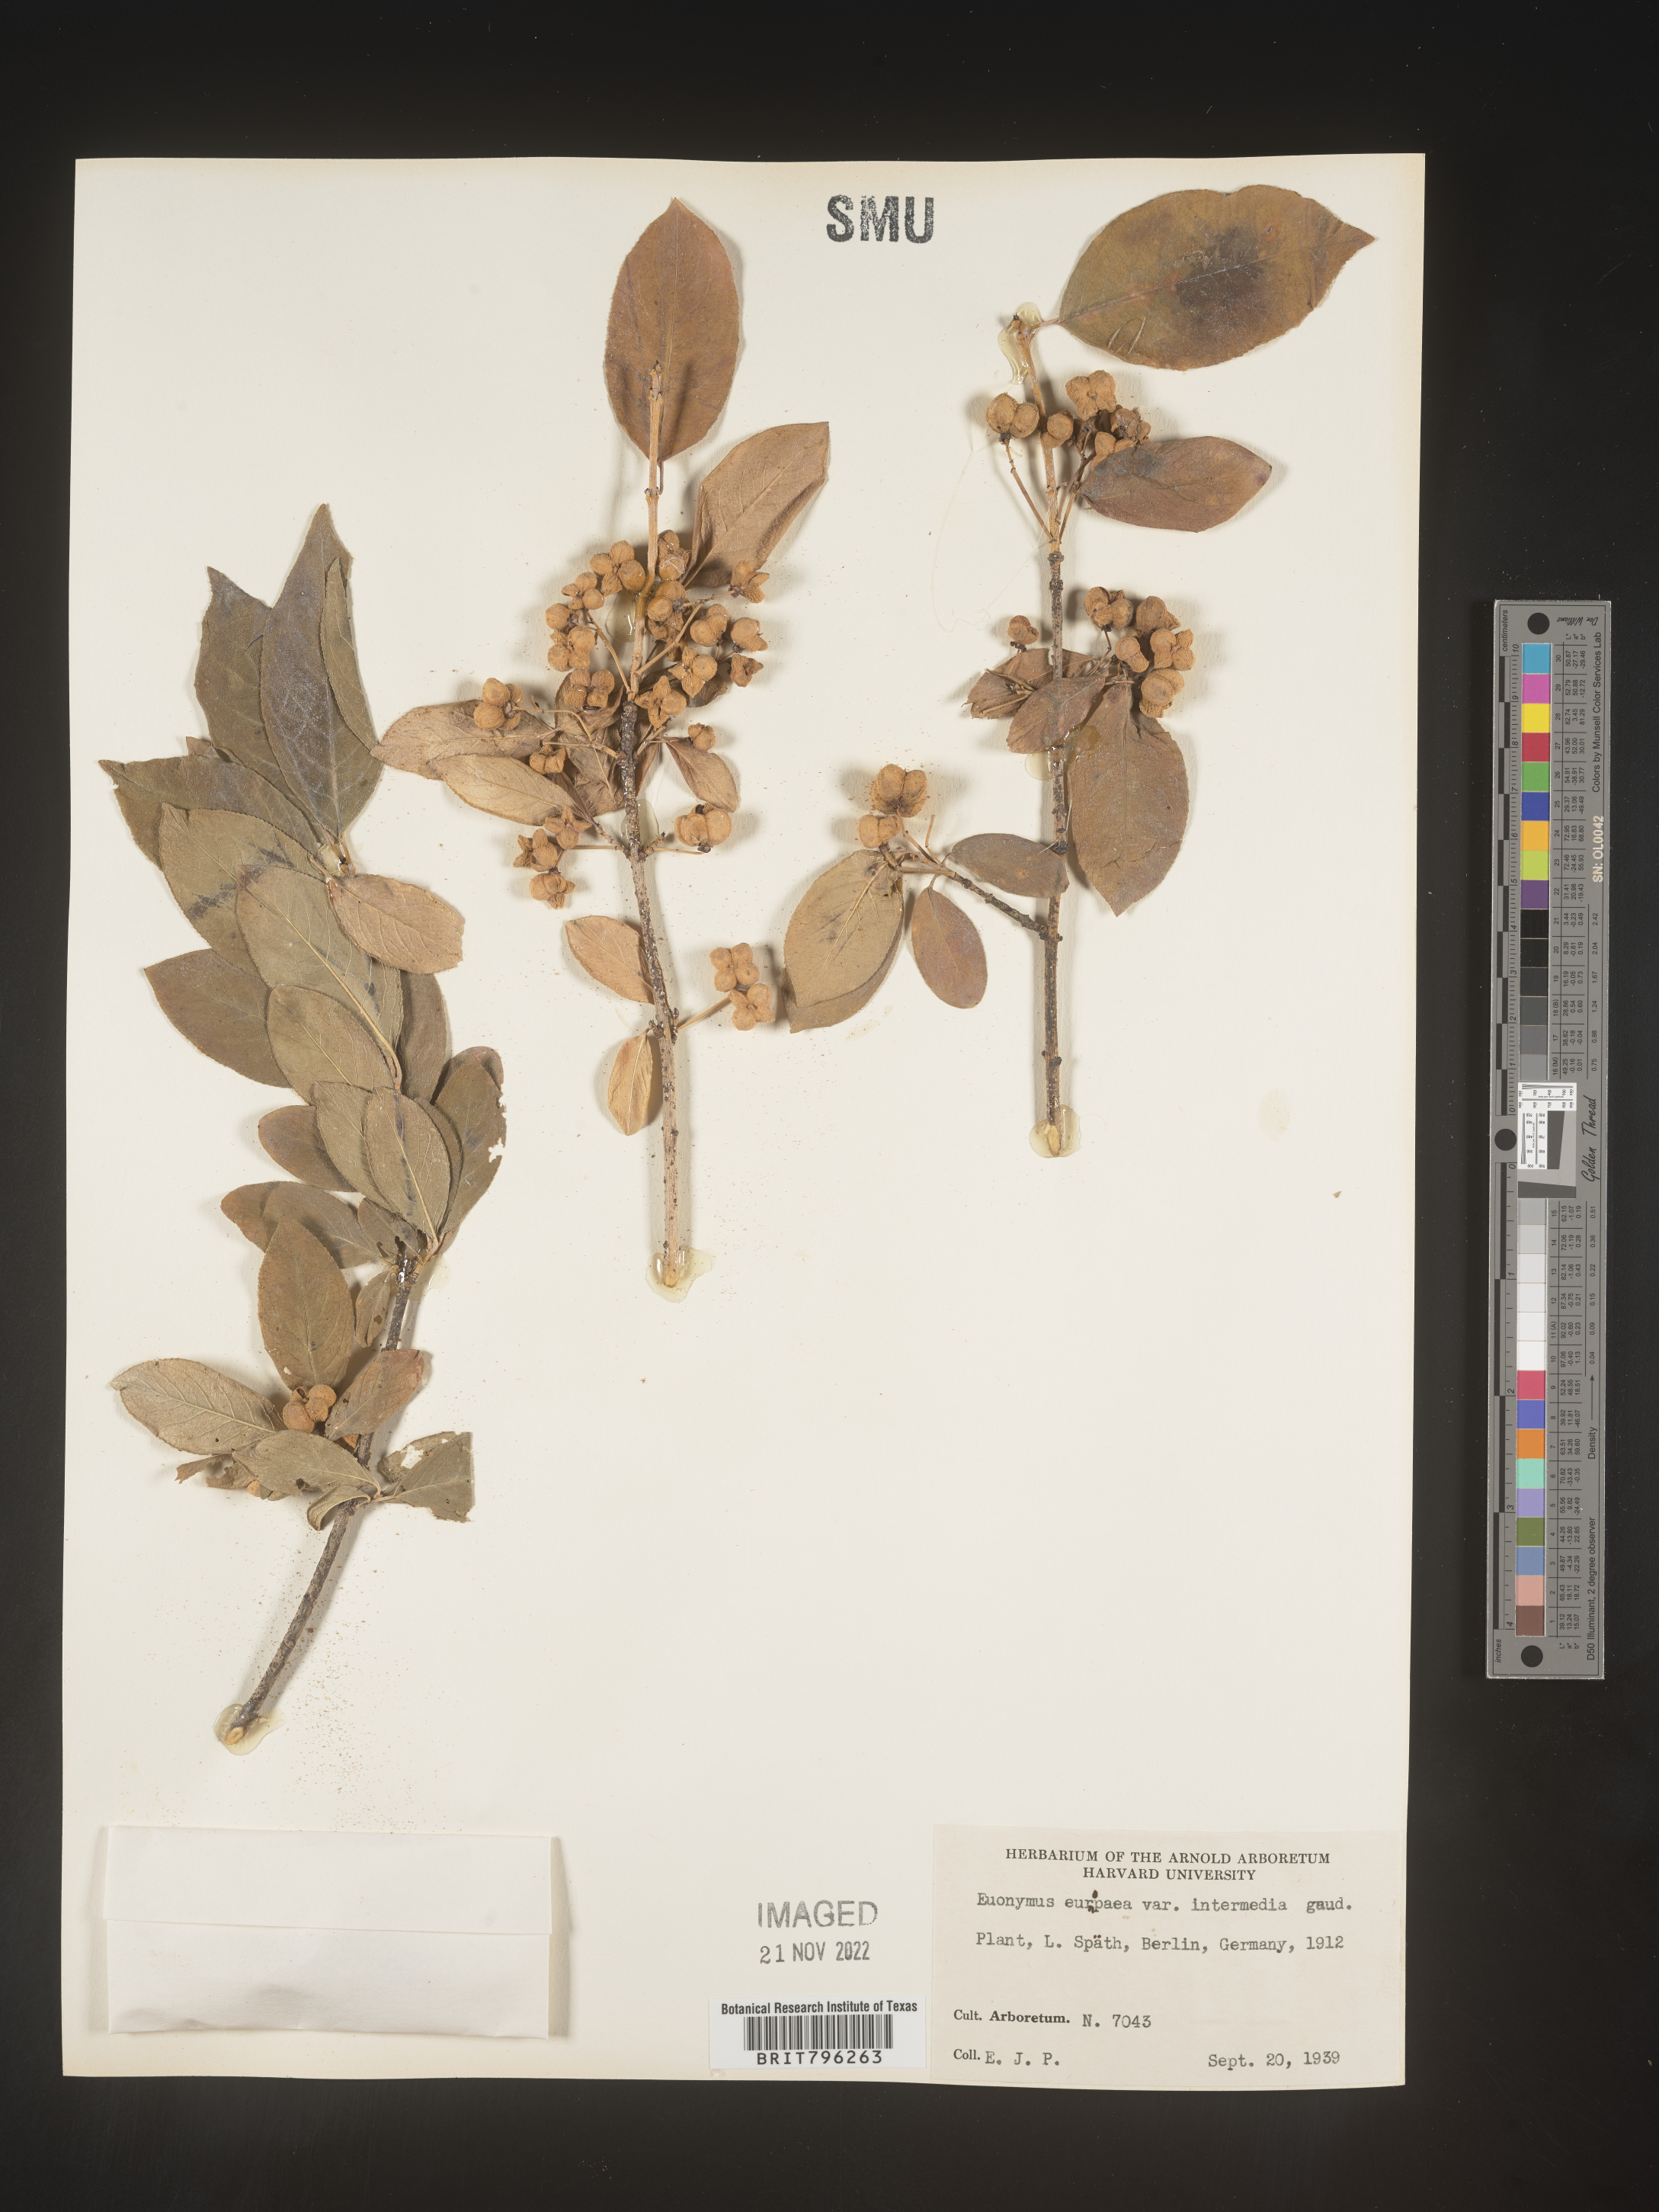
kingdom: Plantae
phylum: Tracheophyta
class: Magnoliopsida
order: Celastrales
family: Celastraceae
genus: Euonymus
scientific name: Euonymus europaeus
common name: Spindle
